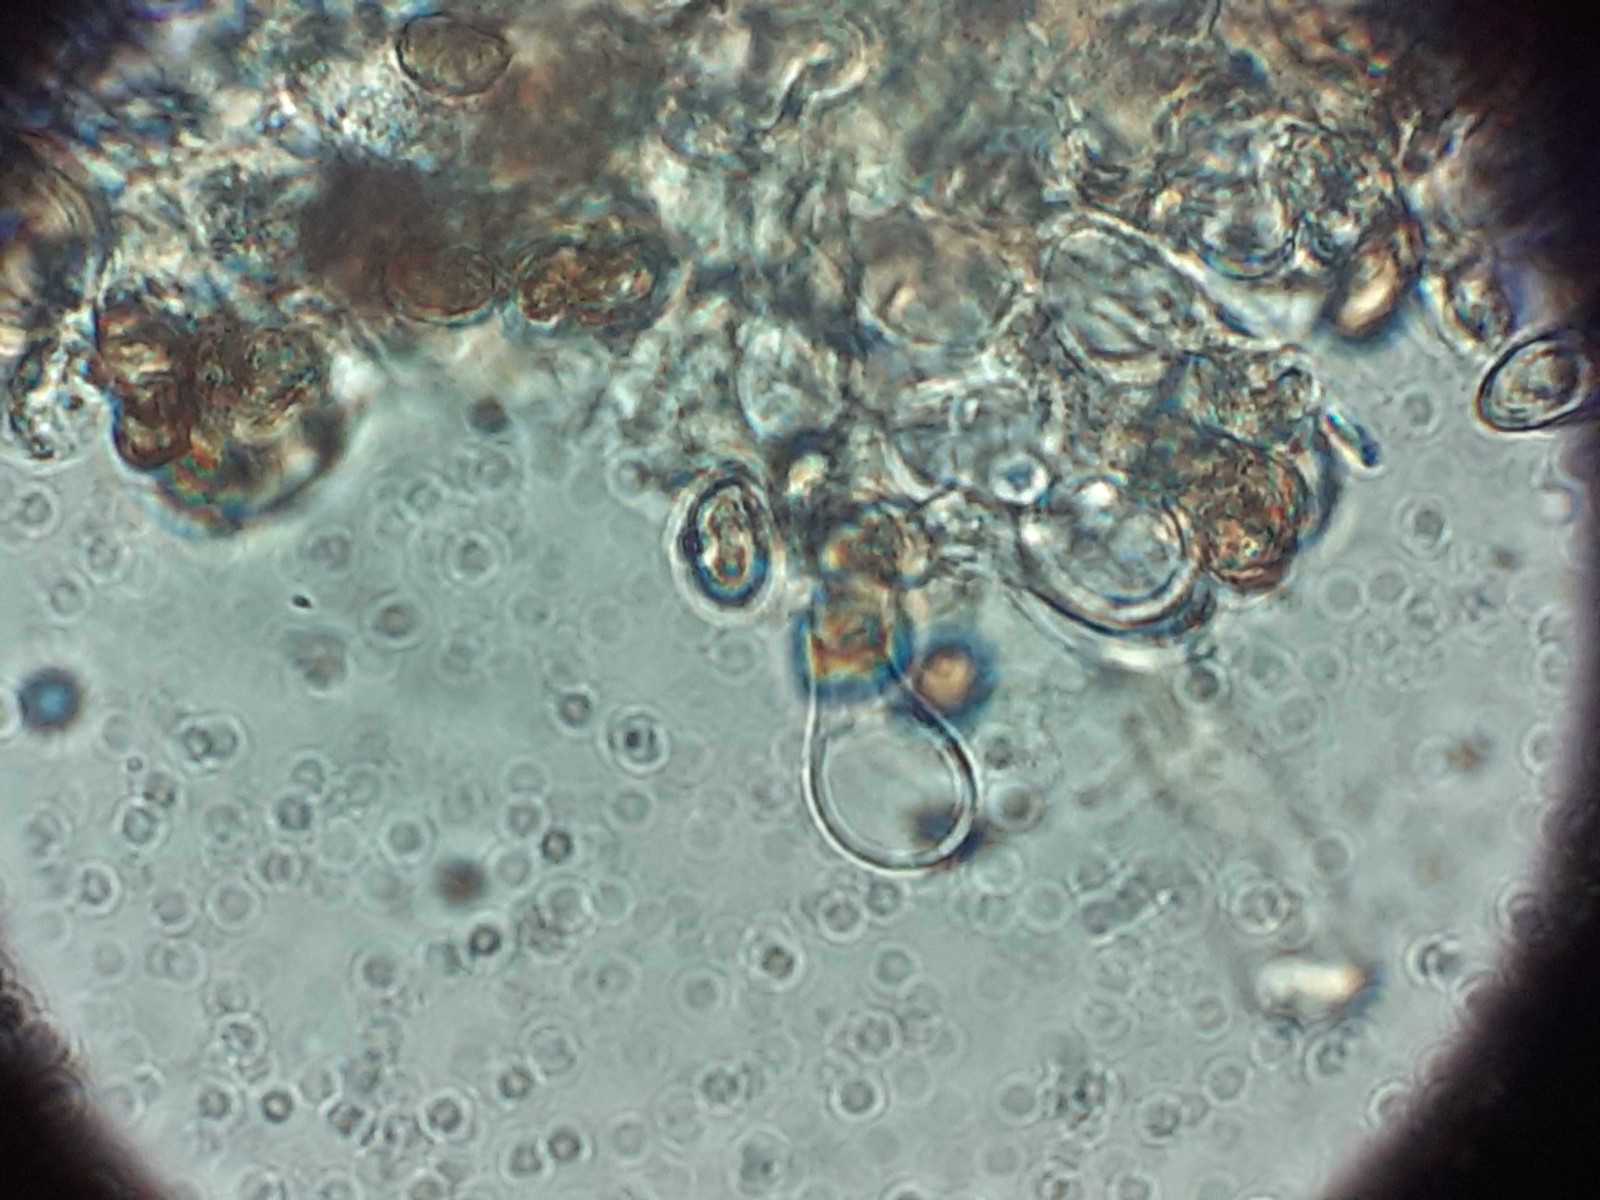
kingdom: Fungi
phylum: Basidiomycota
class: Agaricomycetes
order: Agaricales
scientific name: Agaricales
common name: champignonordenen
